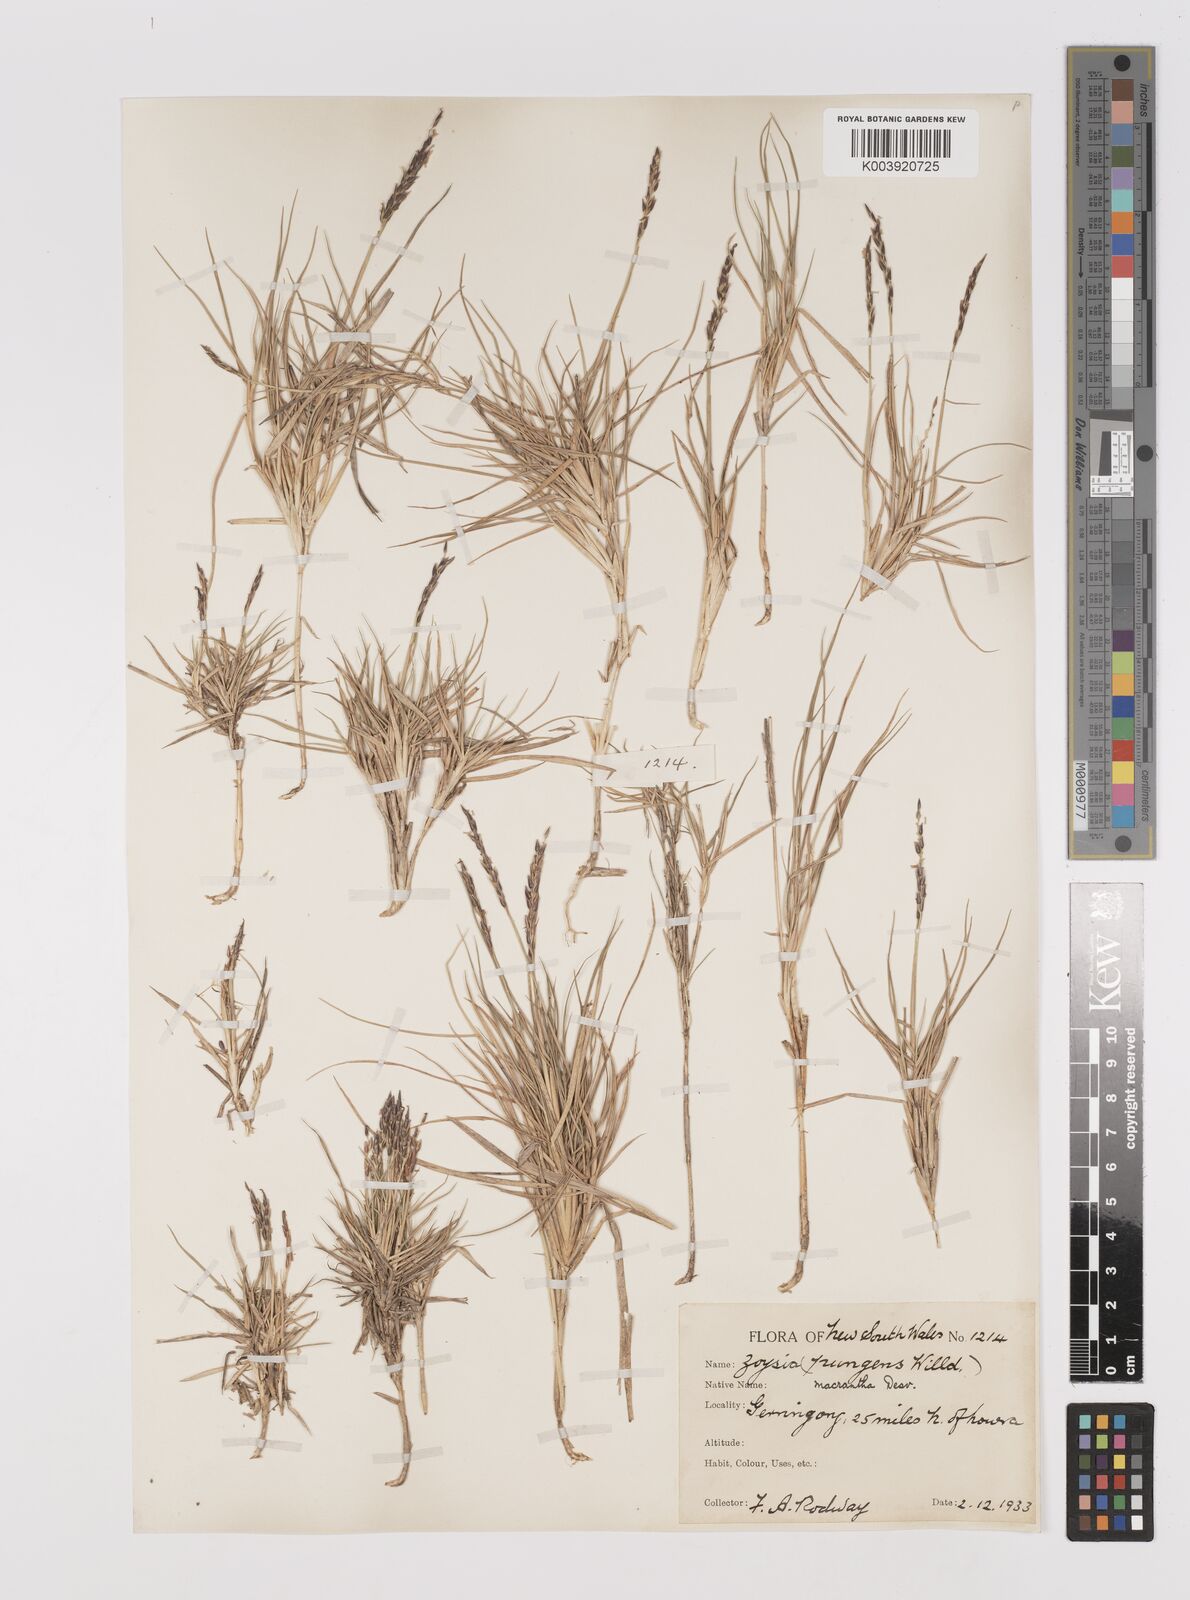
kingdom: Plantae
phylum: Tracheophyta
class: Liliopsida
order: Poales
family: Poaceae
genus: Zoysia
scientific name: Zoysia macrantha
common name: Korean lawn grass
